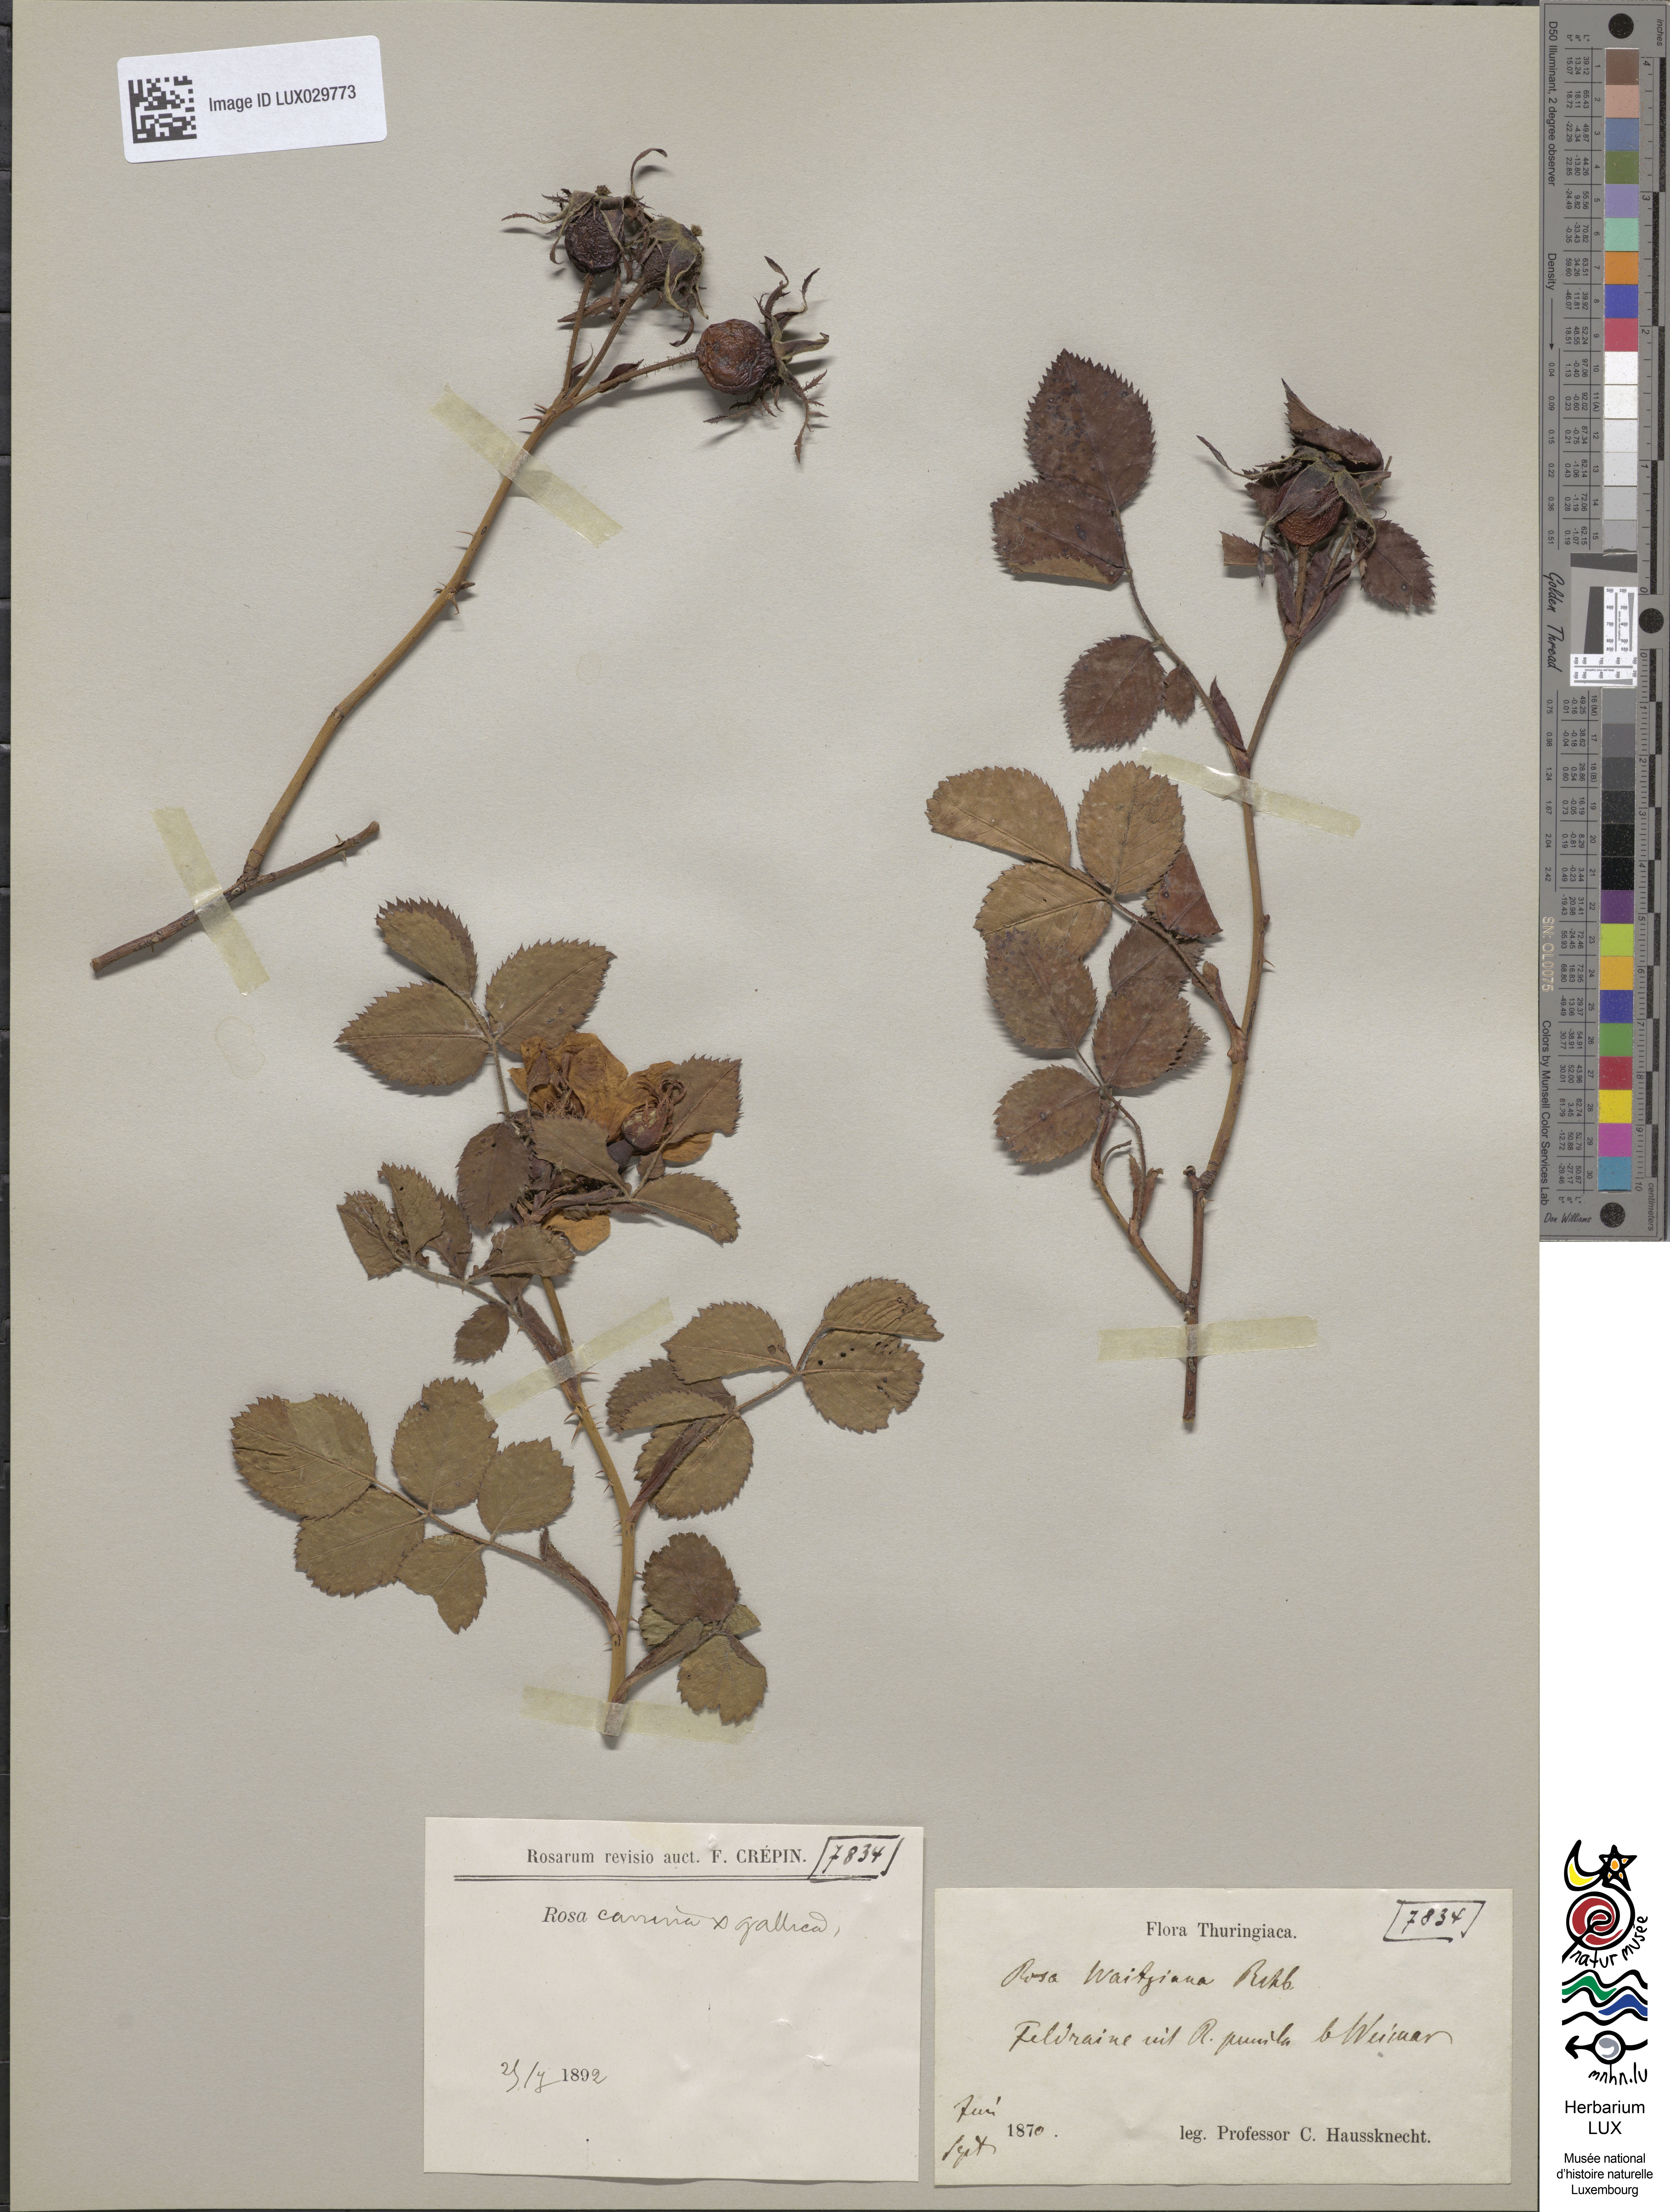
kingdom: Plantae
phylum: Tracheophyta
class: Magnoliopsida
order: Rosales
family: Rosaceae
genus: Rosa
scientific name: Rosa
